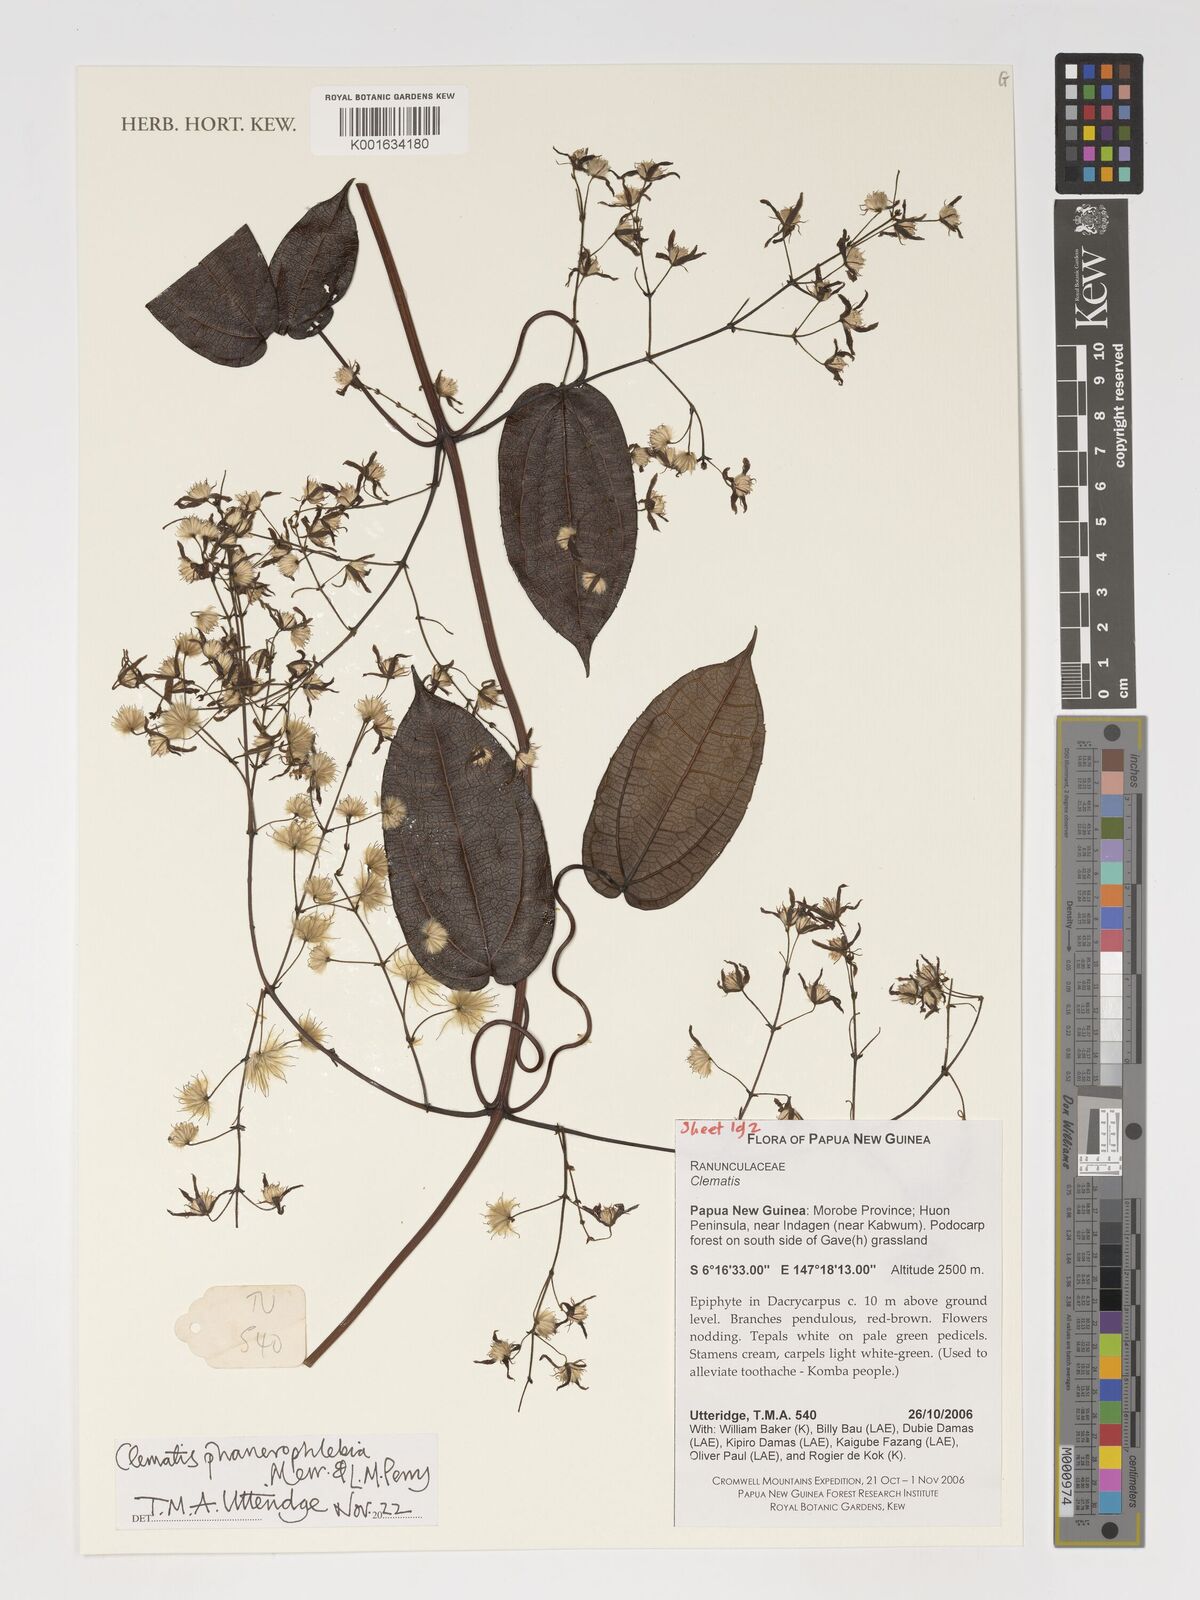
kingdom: Plantae
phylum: Tracheophyta
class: Magnoliopsida
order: Ranunculales
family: Ranunculaceae
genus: Clematis
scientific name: Clematis phanerophlebia
